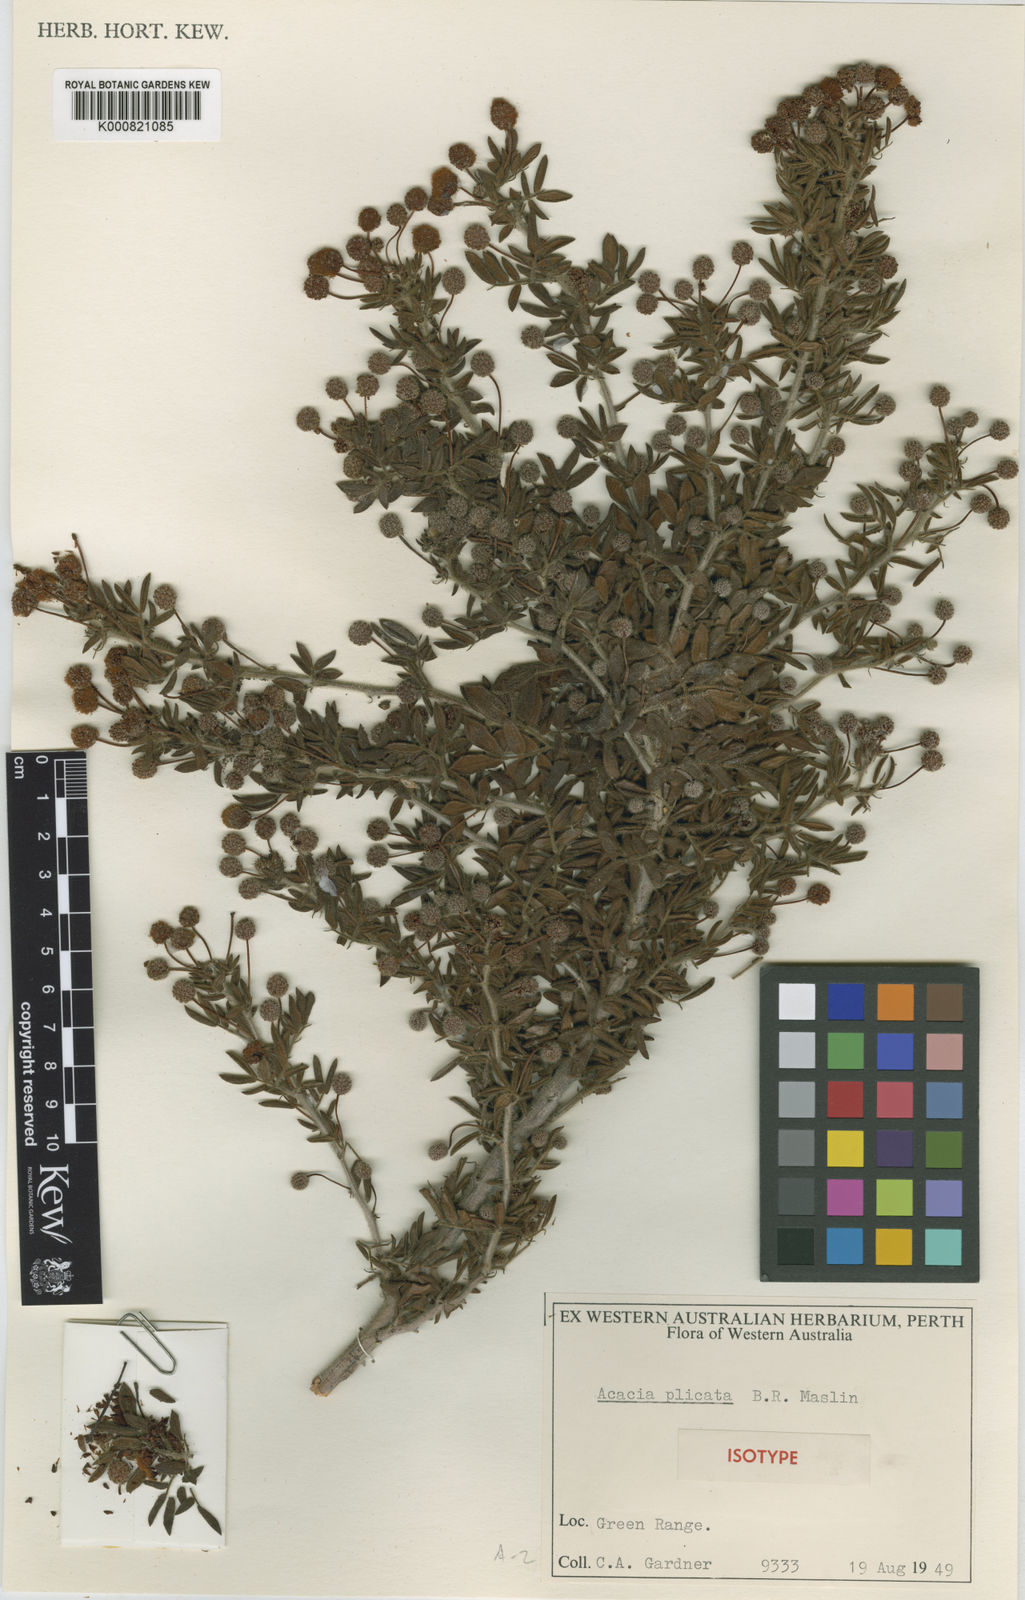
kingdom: Plantae
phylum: Tracheophyta
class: Magnoliopsida
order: Fabales
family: Fabaceae
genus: Acacia
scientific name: Acacia plicata
